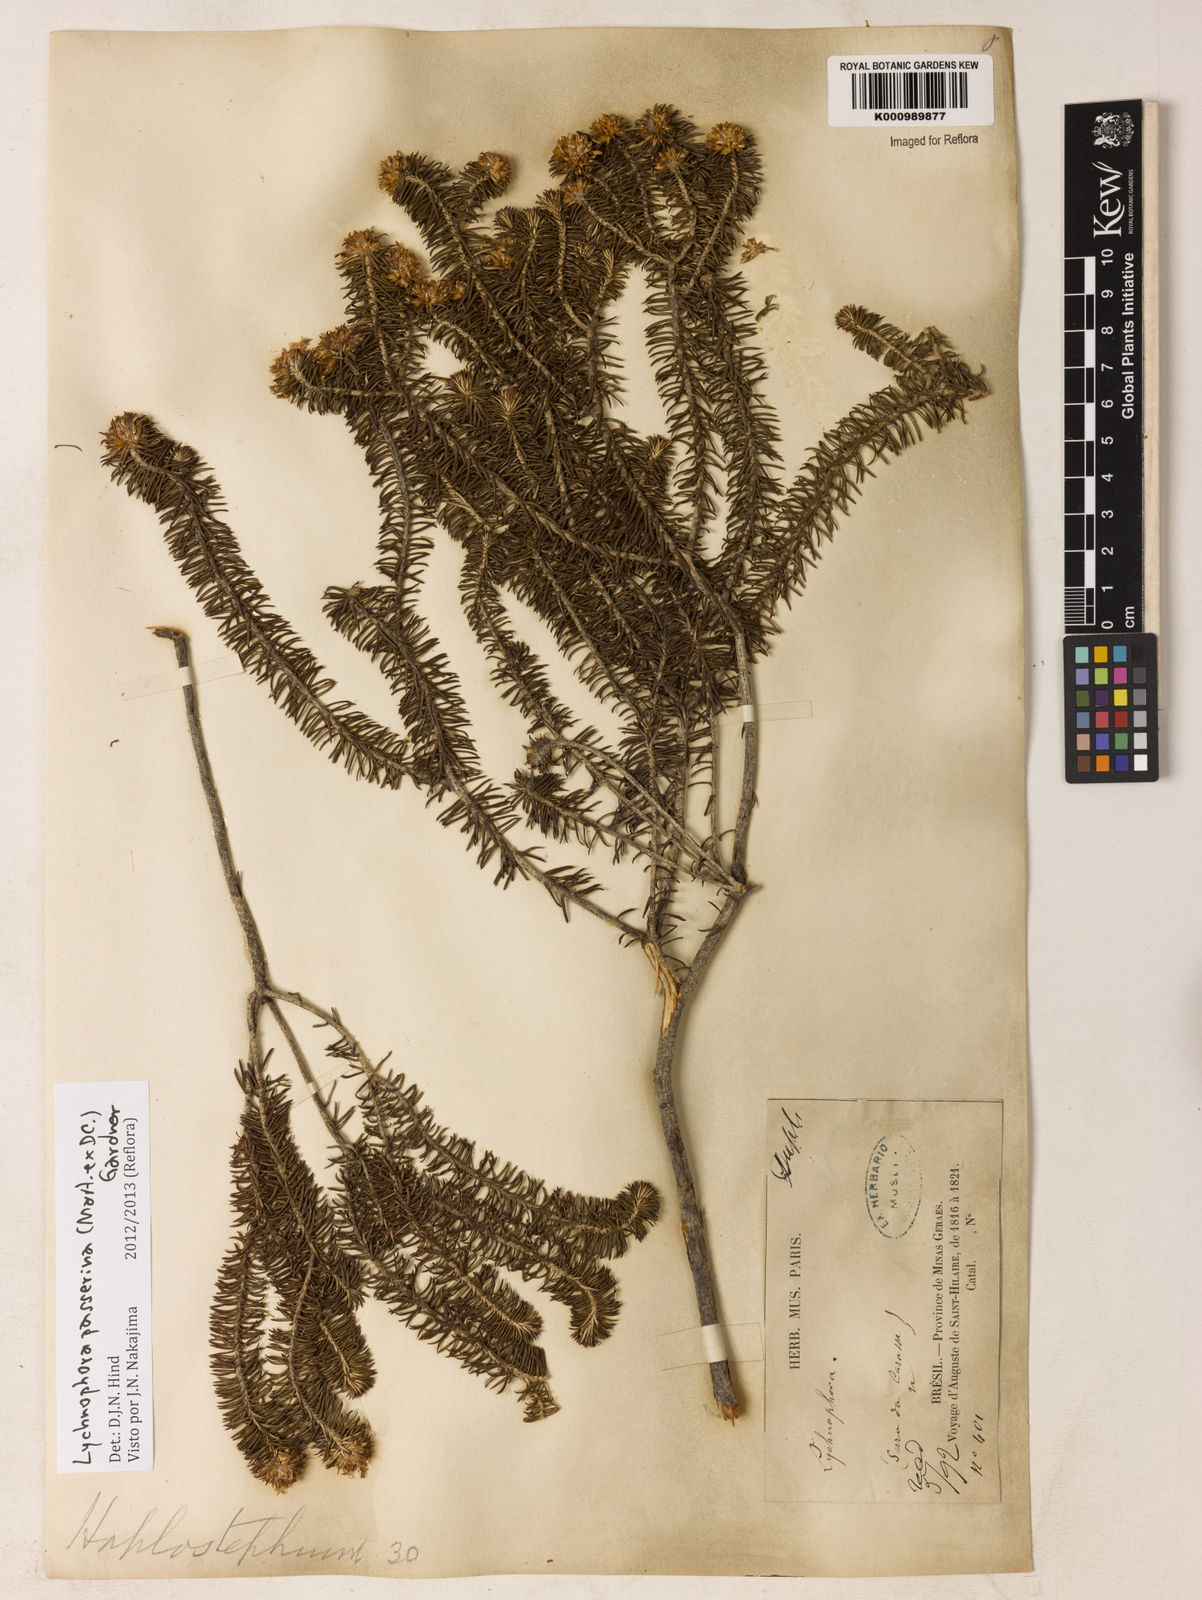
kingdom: Plantae
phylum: Tracheophyta
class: Magnoliopsida
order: Asterales
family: Asteraceae
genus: Lychnophora
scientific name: Lychnophora passerina
